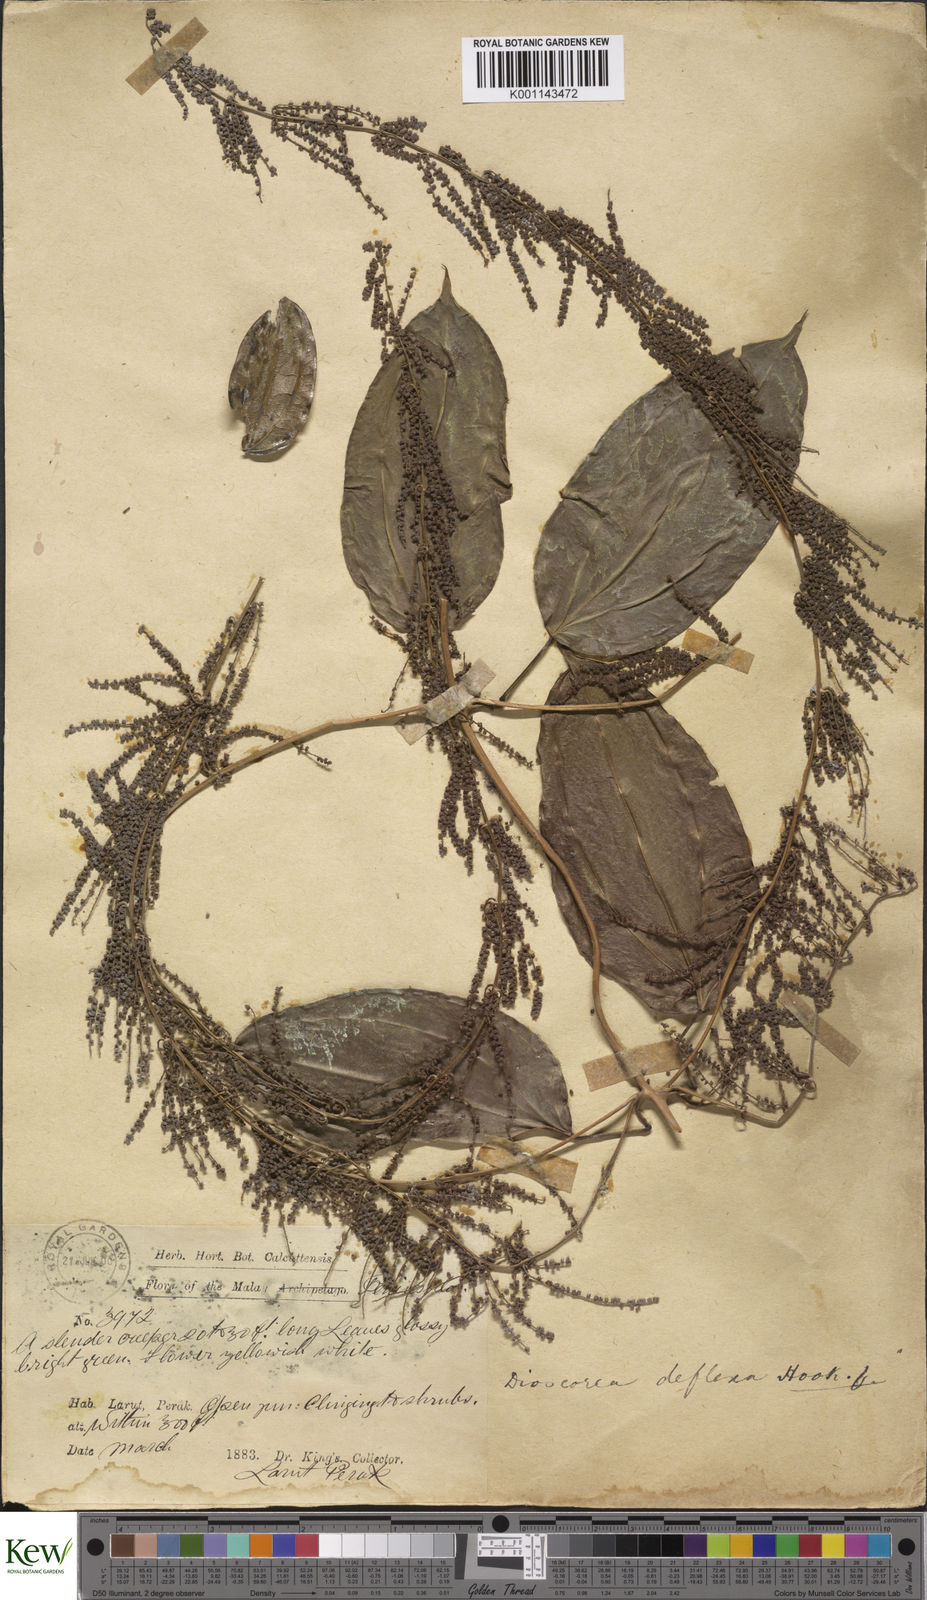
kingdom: Plantae
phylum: Tracheophyta
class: Liliopsida
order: Dioscoreales
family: Dioscoreaceae
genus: Dioscorea
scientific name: Dioscorea tenuifolia
